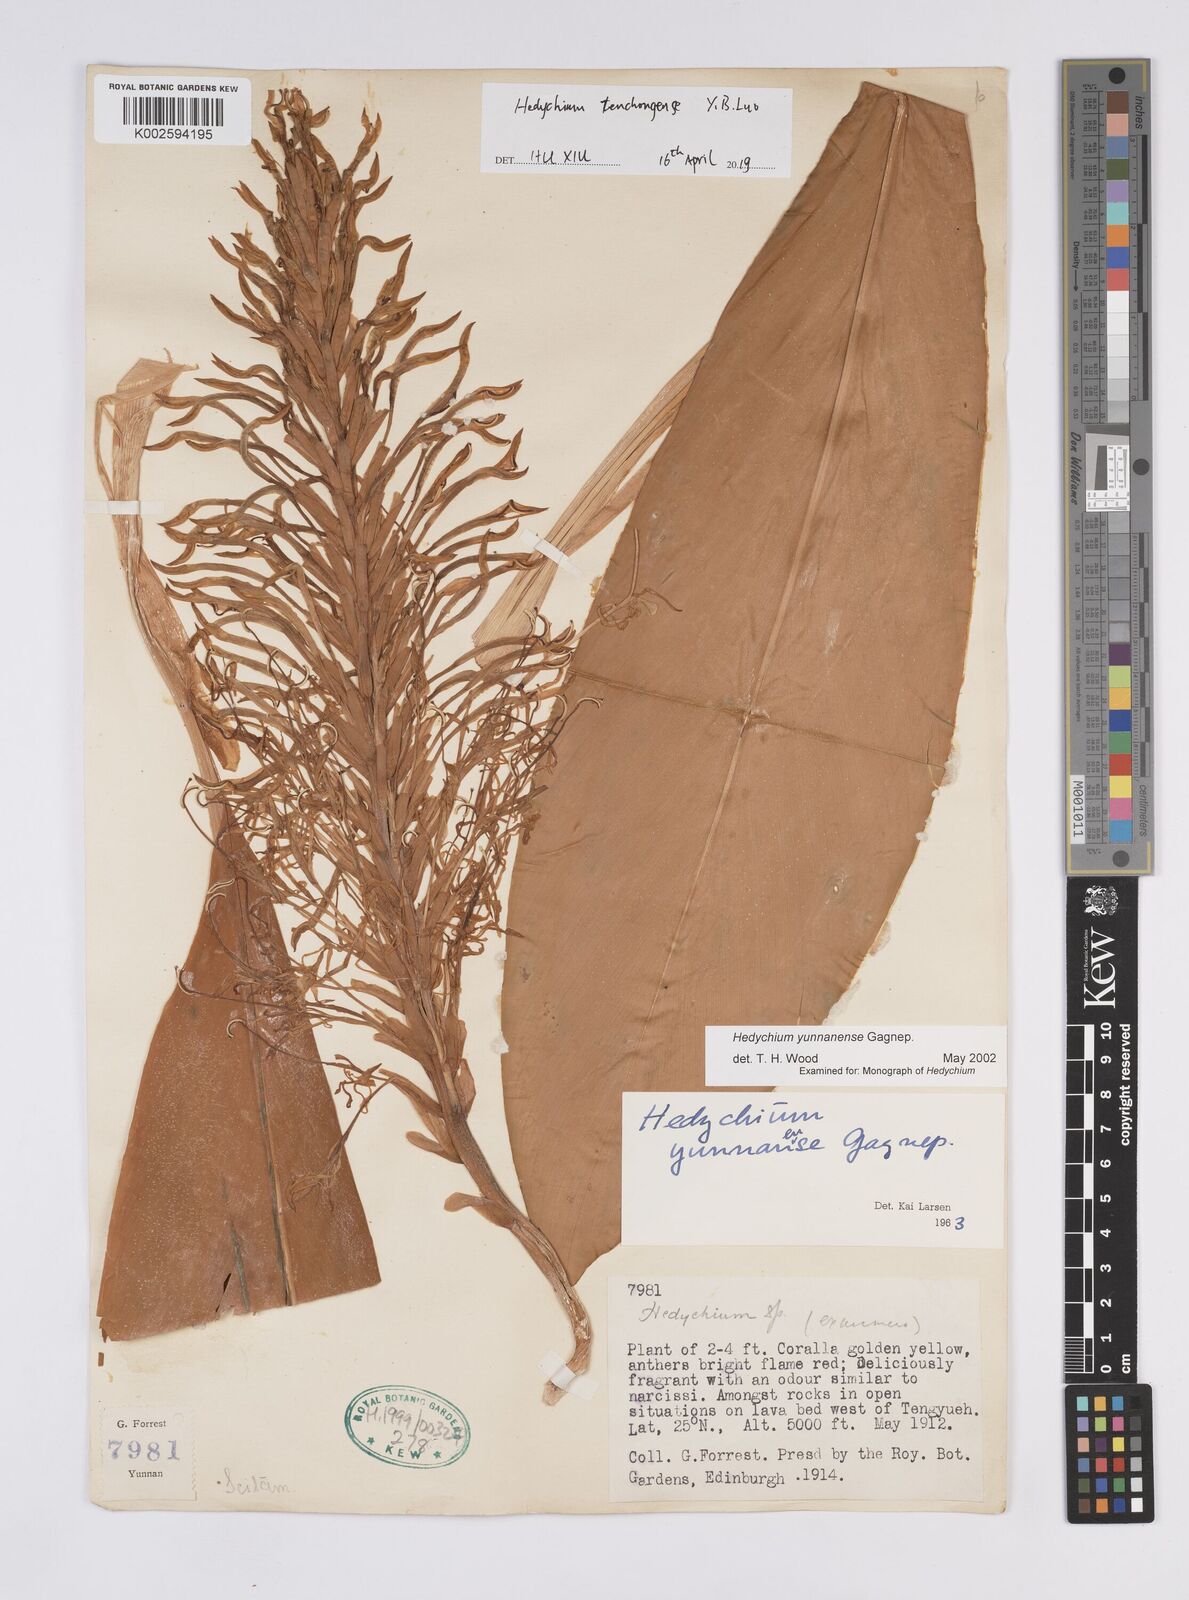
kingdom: Plantae
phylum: Tracheophyta
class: Liliopsida
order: Zingiberales
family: Zingiberaceae
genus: Hedychium
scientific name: Hedychium tengchongense
